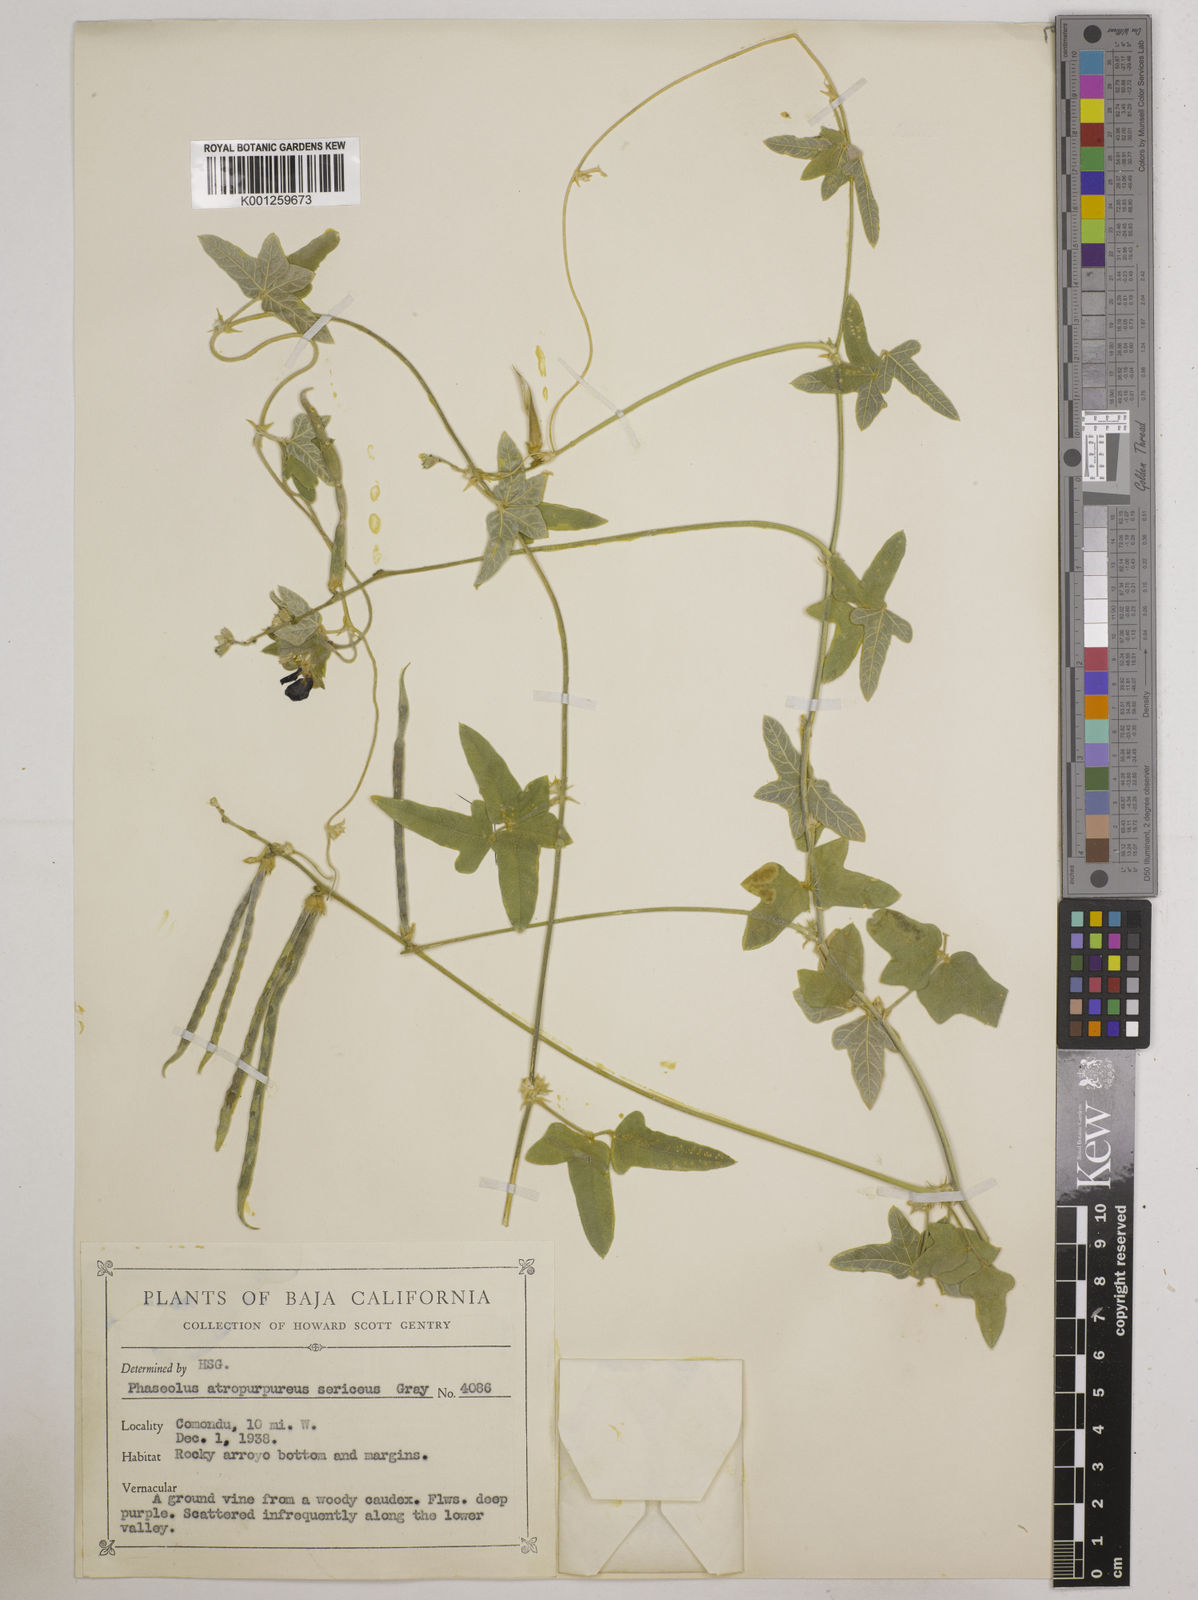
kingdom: Plantae
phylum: Tracheophyta
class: Magnoliopsida
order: Fabales
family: Fabaceae
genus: Macroptilium
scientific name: Macroptilium atropurpureum
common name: Purple bushbean
